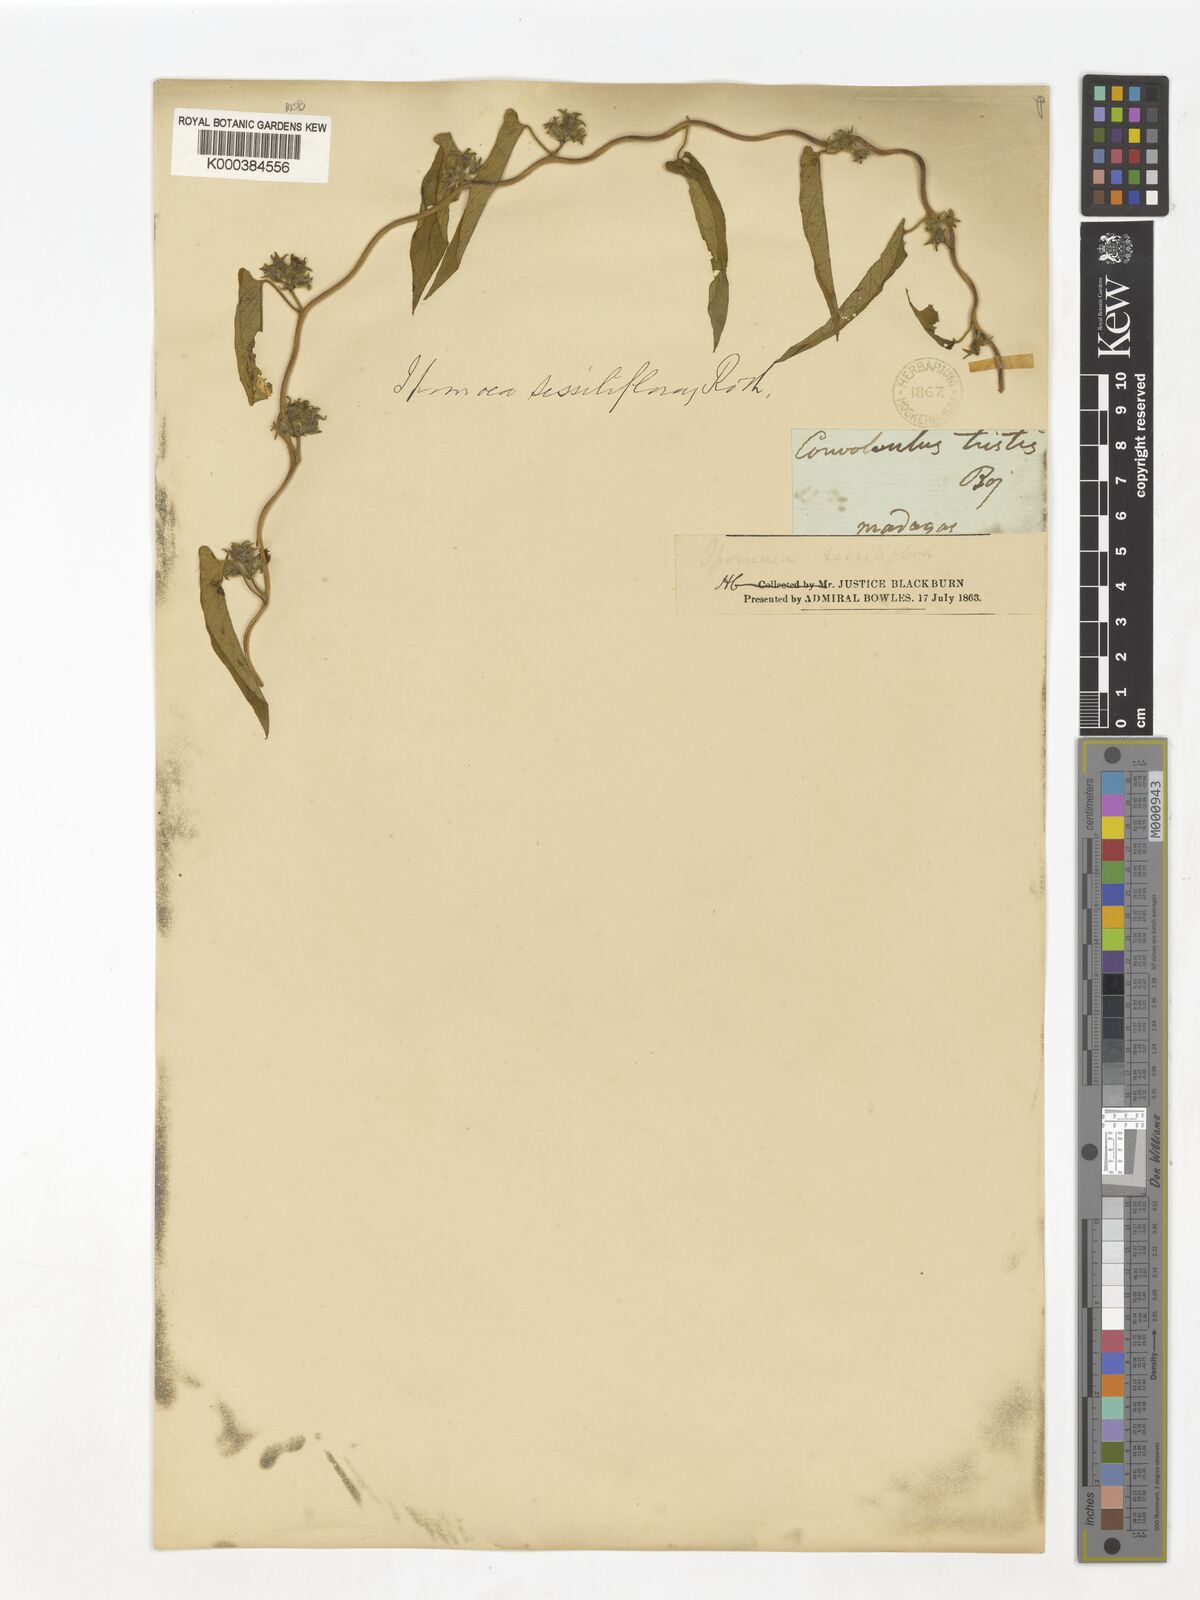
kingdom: Plantae
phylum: Tracheophyta
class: Magnoliopsida
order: Solanales
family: Convolvulaceae
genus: Ipomoea
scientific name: Ipomoea eriocarpa
